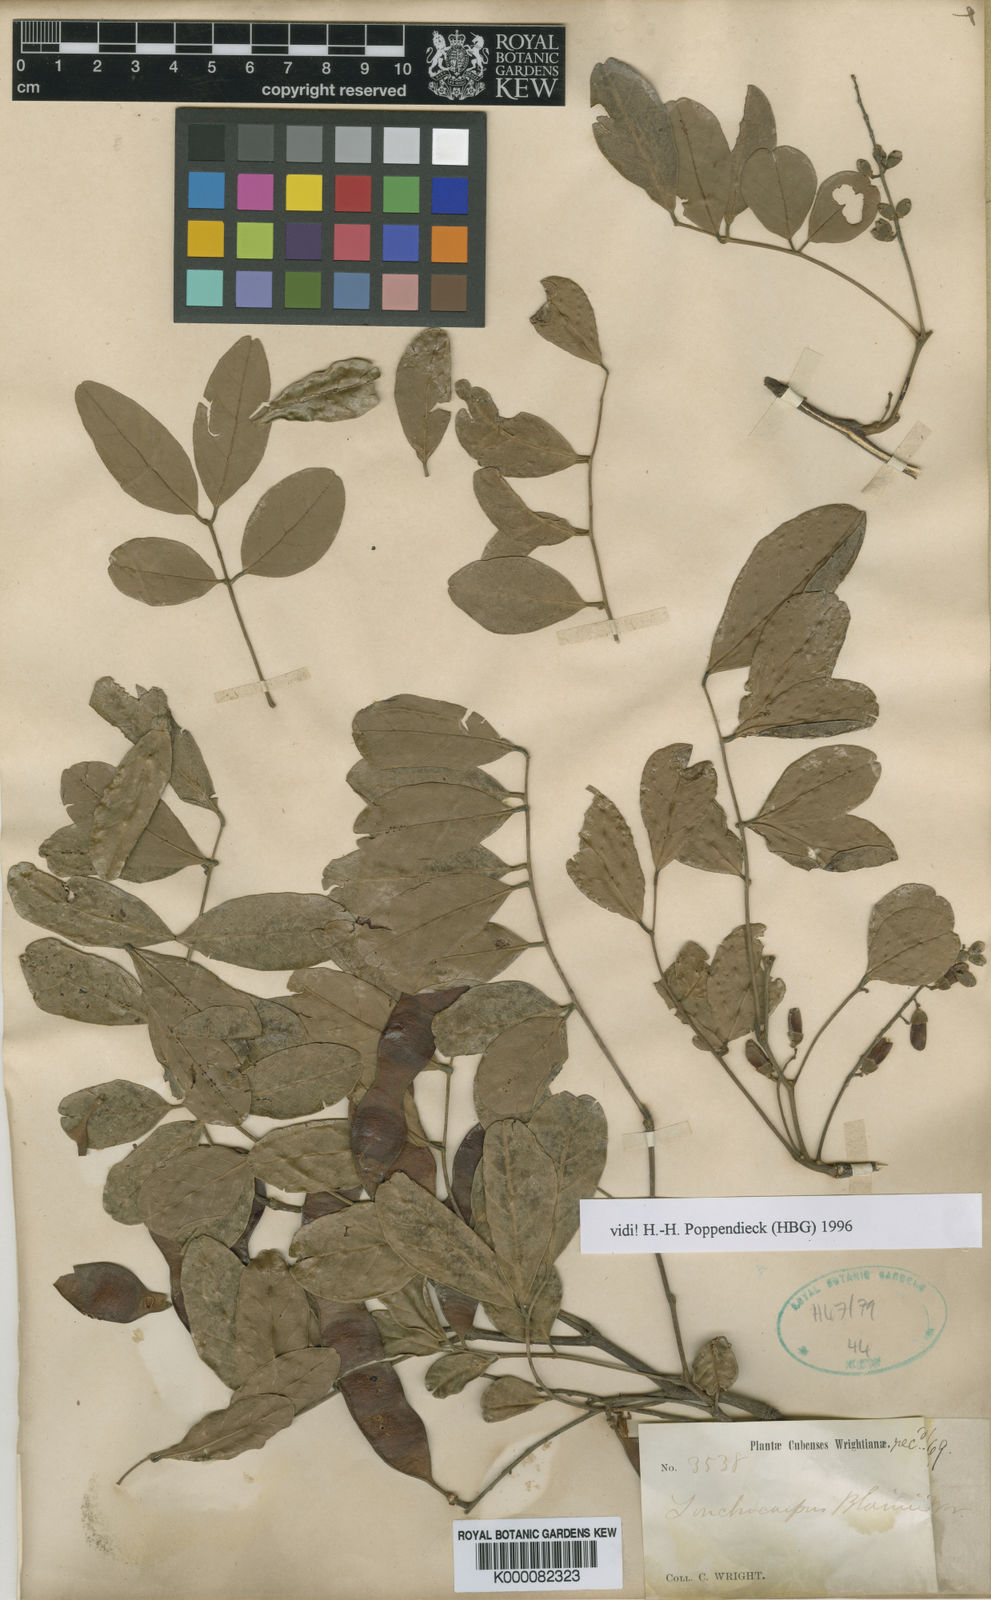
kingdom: Plantae
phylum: Tracheophyta
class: Magnoliopsida
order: Fabales
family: Fabaceae
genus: Lonchocarpus
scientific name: Lonchocarpus blainii
